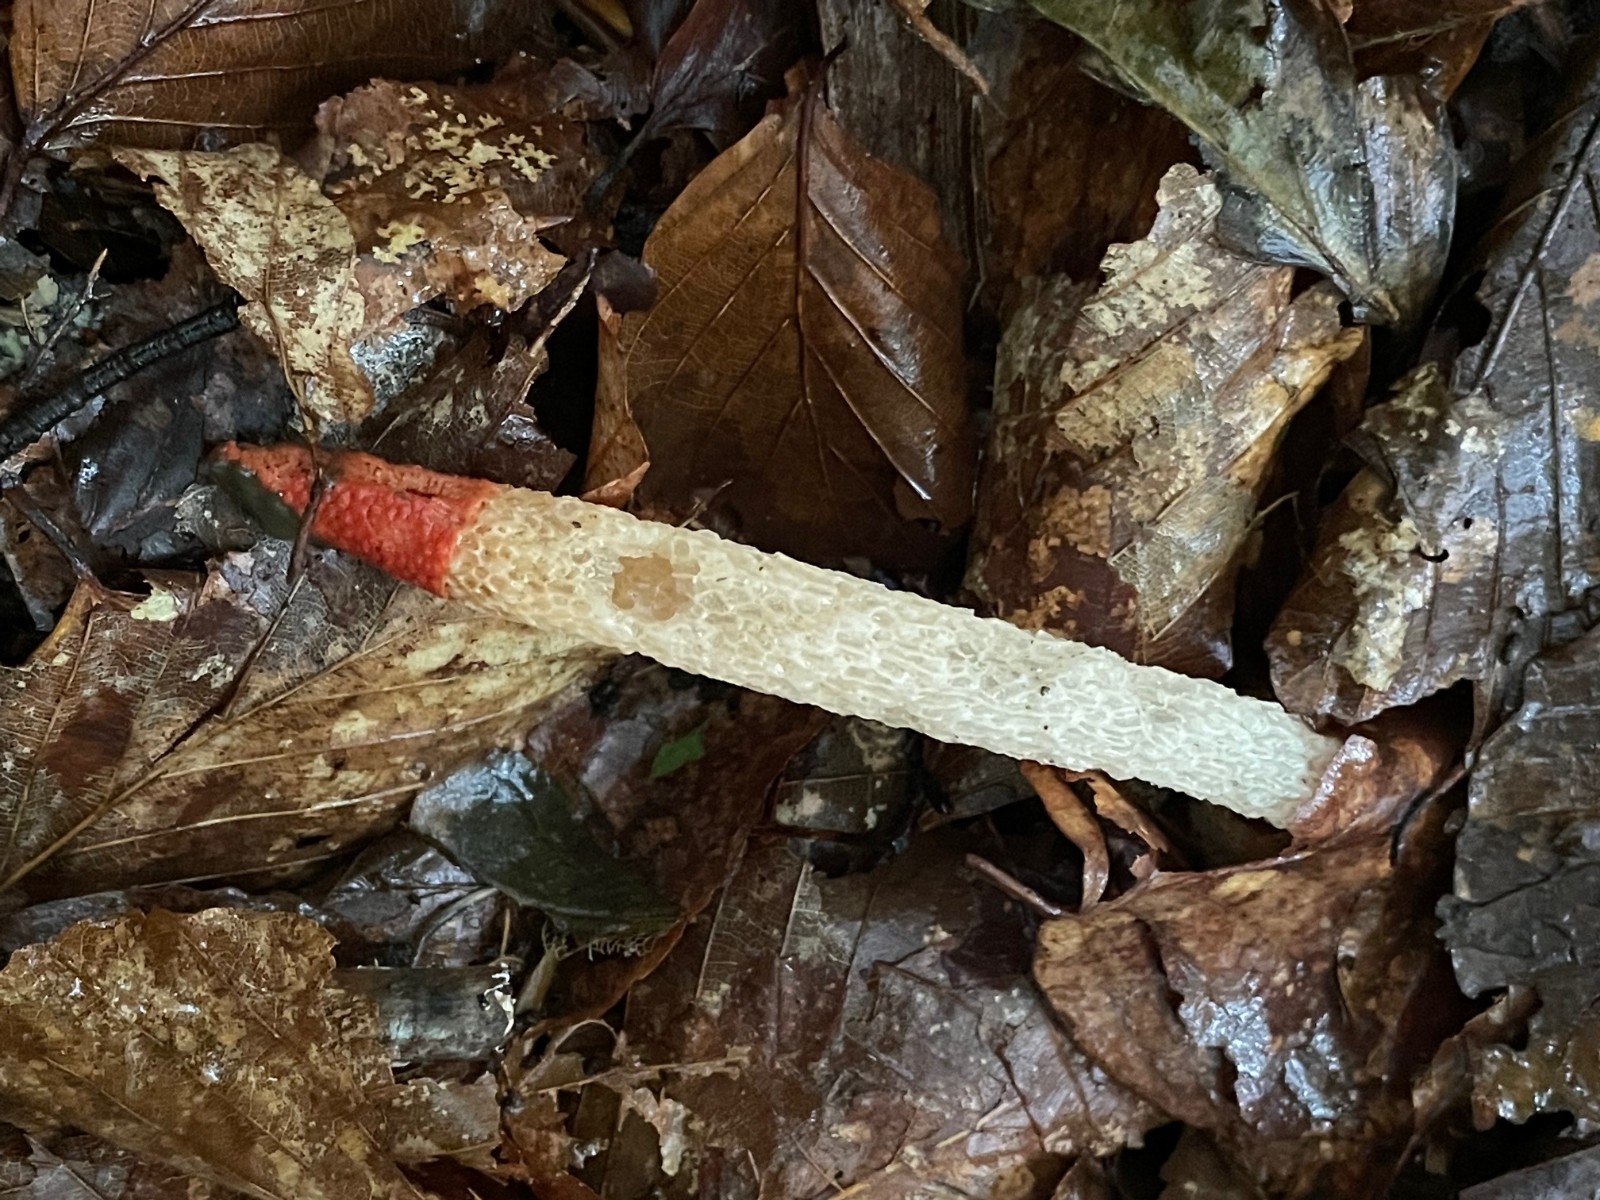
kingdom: Fungi
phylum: Basidiomycota
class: Agaricomycetes
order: Phallales
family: Phallaceae
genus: Mutinus
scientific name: Mutinus caninus
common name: hunde-stinksvamp
